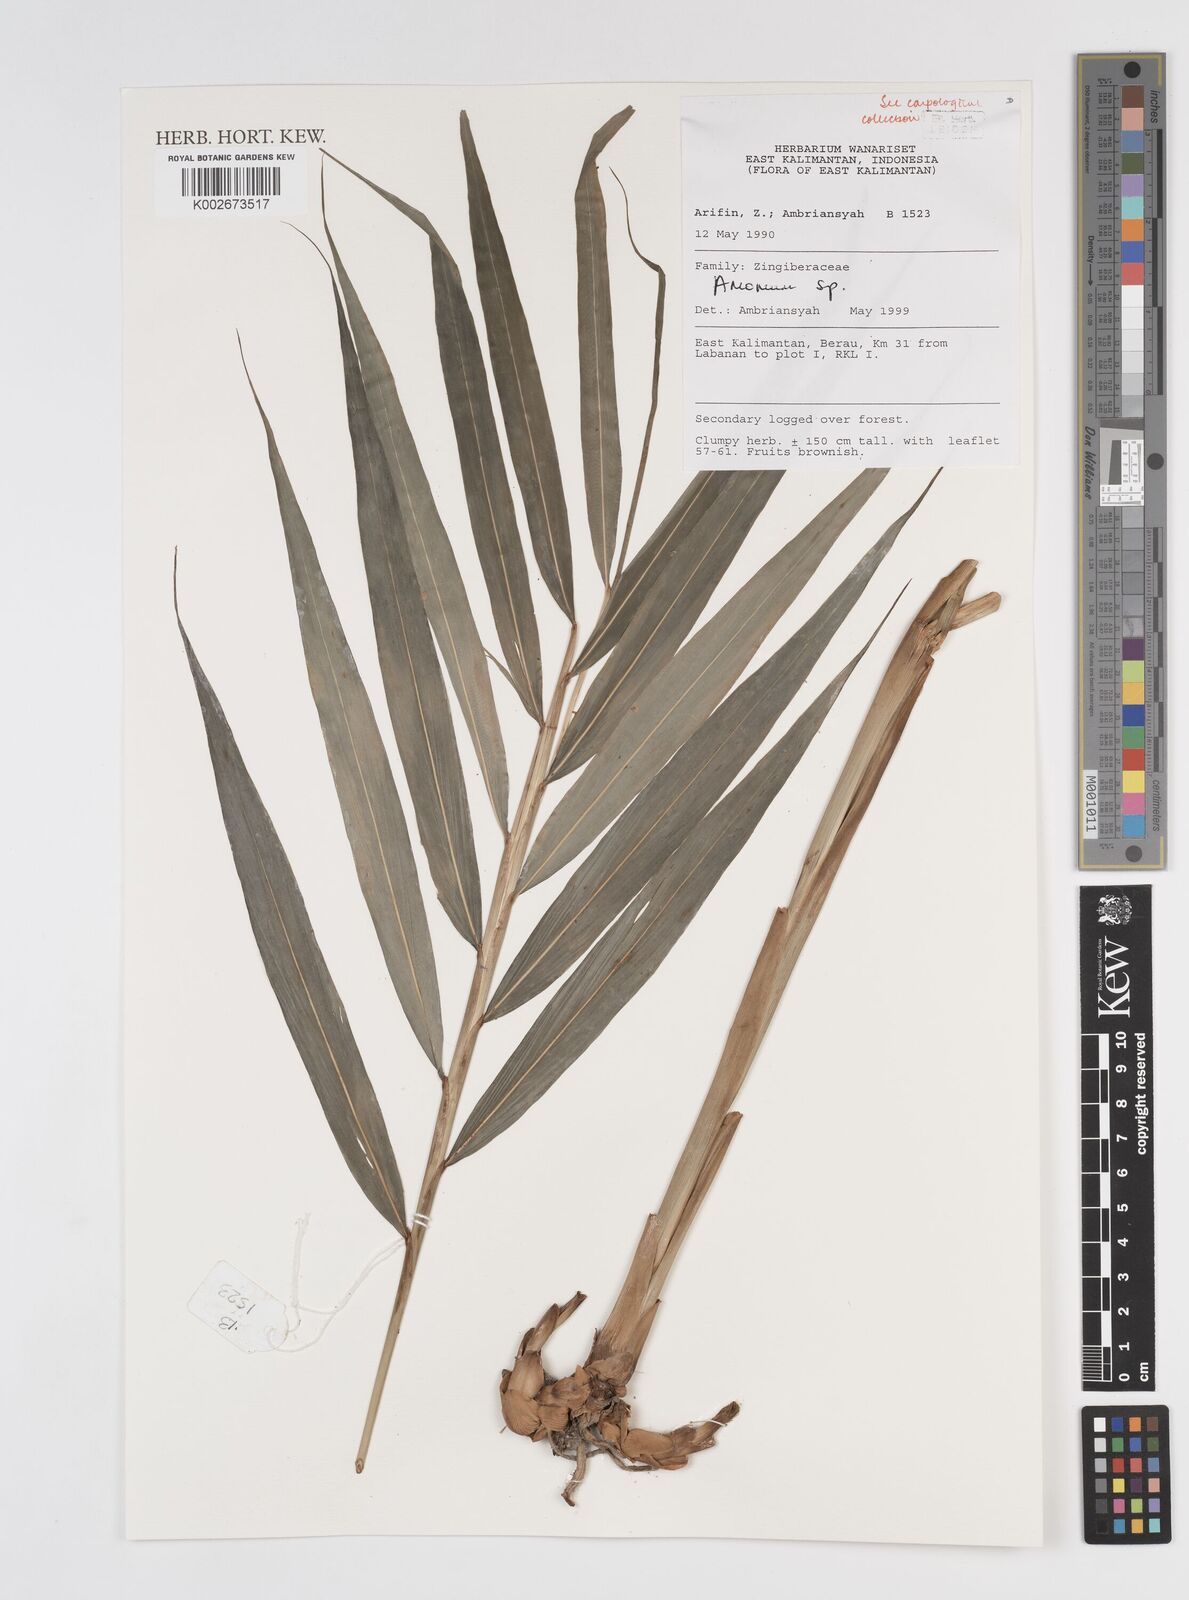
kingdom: Plantae
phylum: Tracheophyta
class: Liliopsida
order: Zingiberales
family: Zingiberaceae
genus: Amomum
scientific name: Amomum
